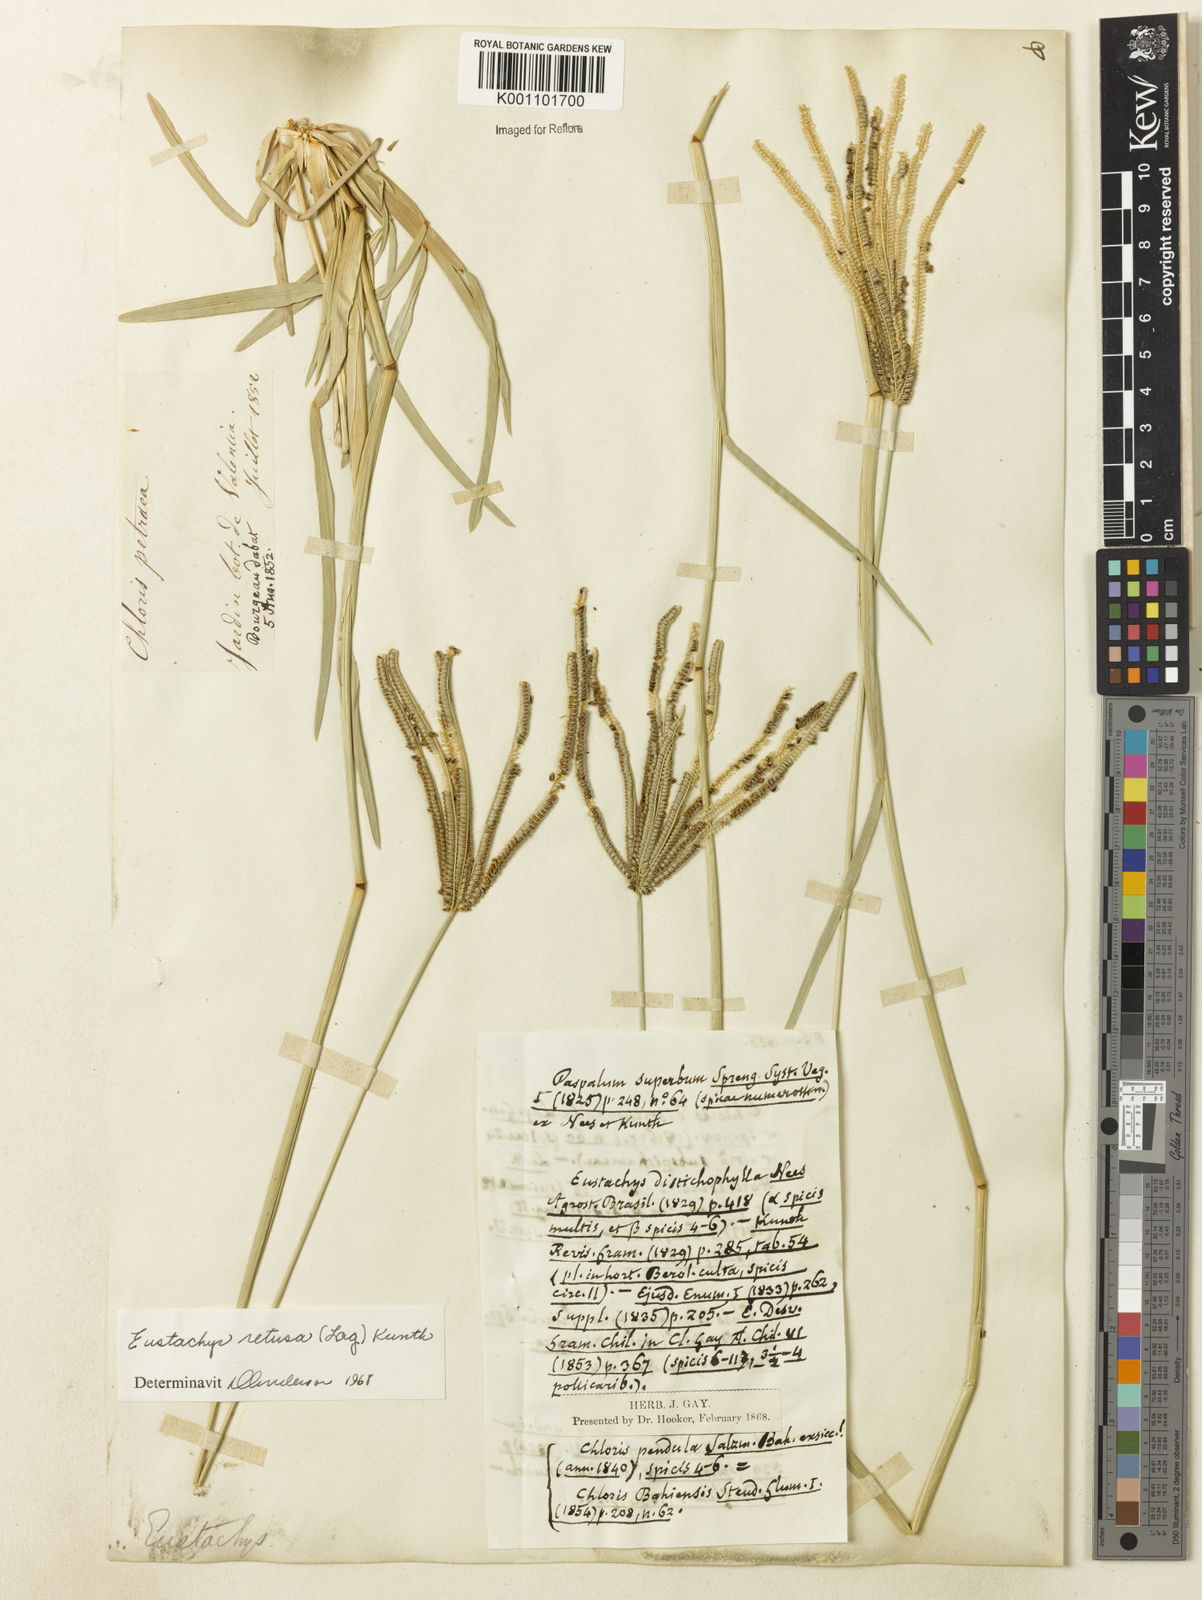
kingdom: Plantae
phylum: Tracheophyta
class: Liliopsida
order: Poales
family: Poaceae
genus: Eustachys
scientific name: Eustachys retusa
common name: Argentine fingergrass
